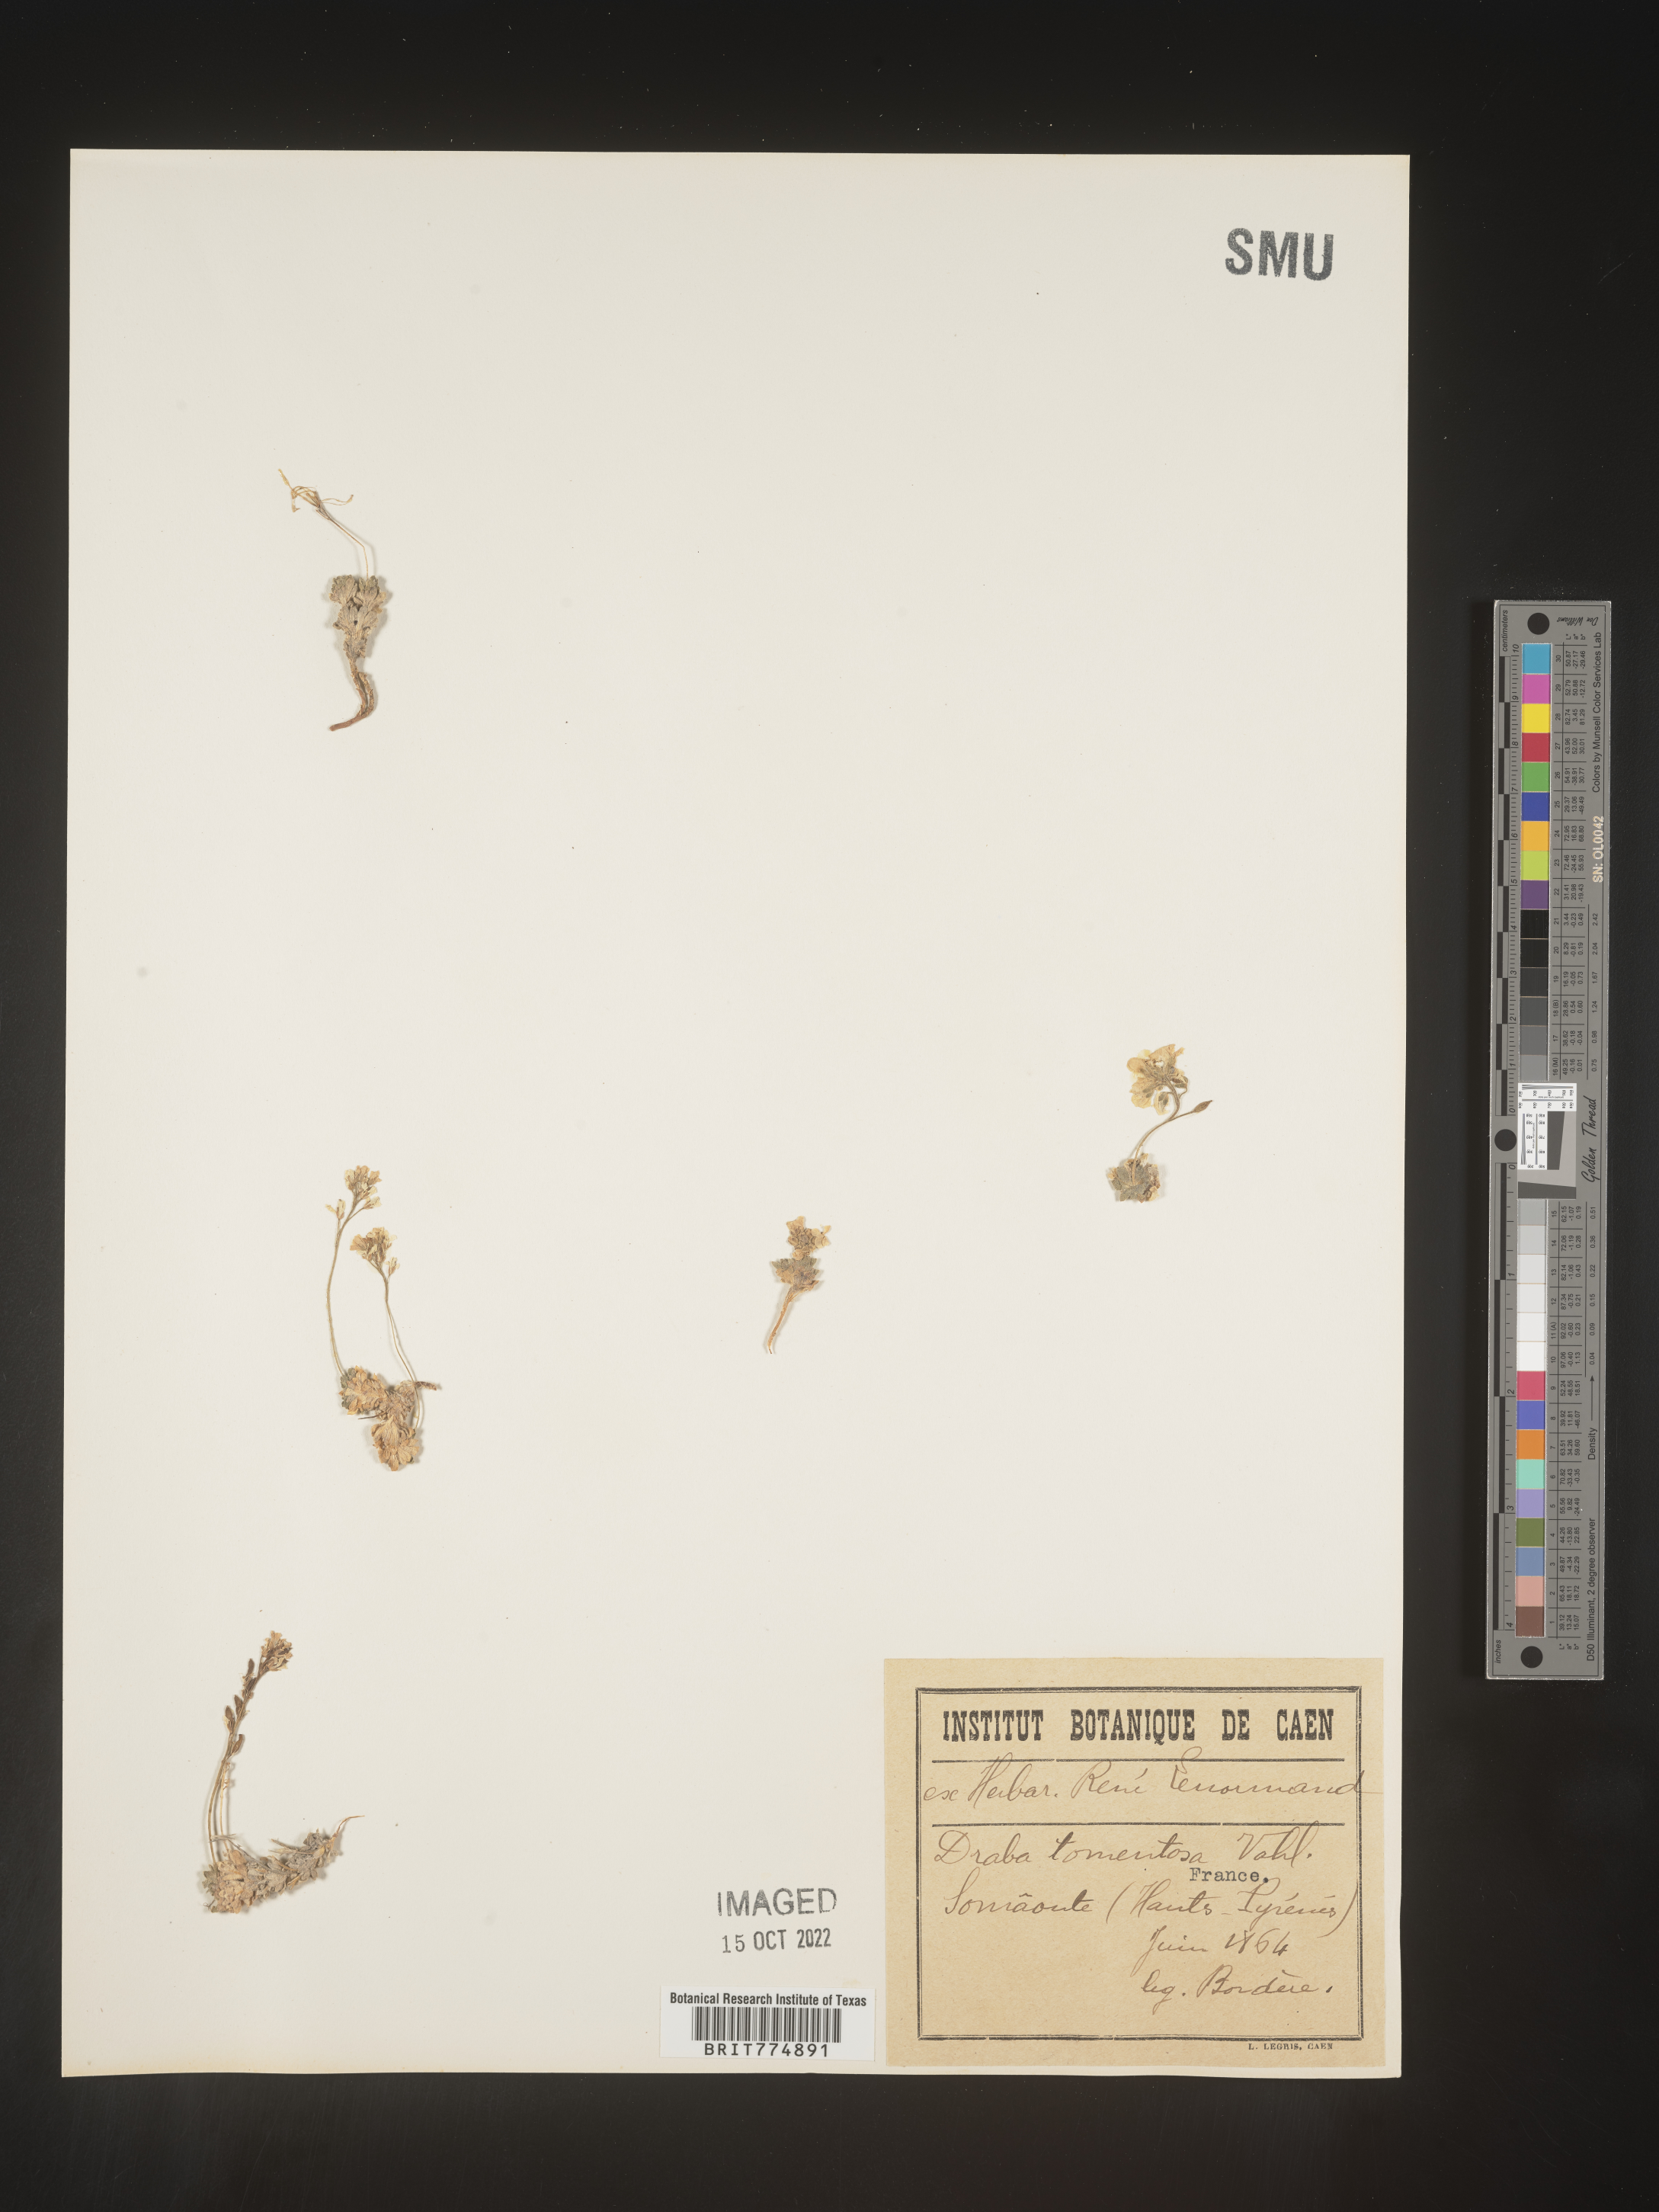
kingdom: Plantae
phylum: Tracheophyta
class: Magnoliopsida
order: Brassicales
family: Brassicaceae
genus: Draba
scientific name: Draba
